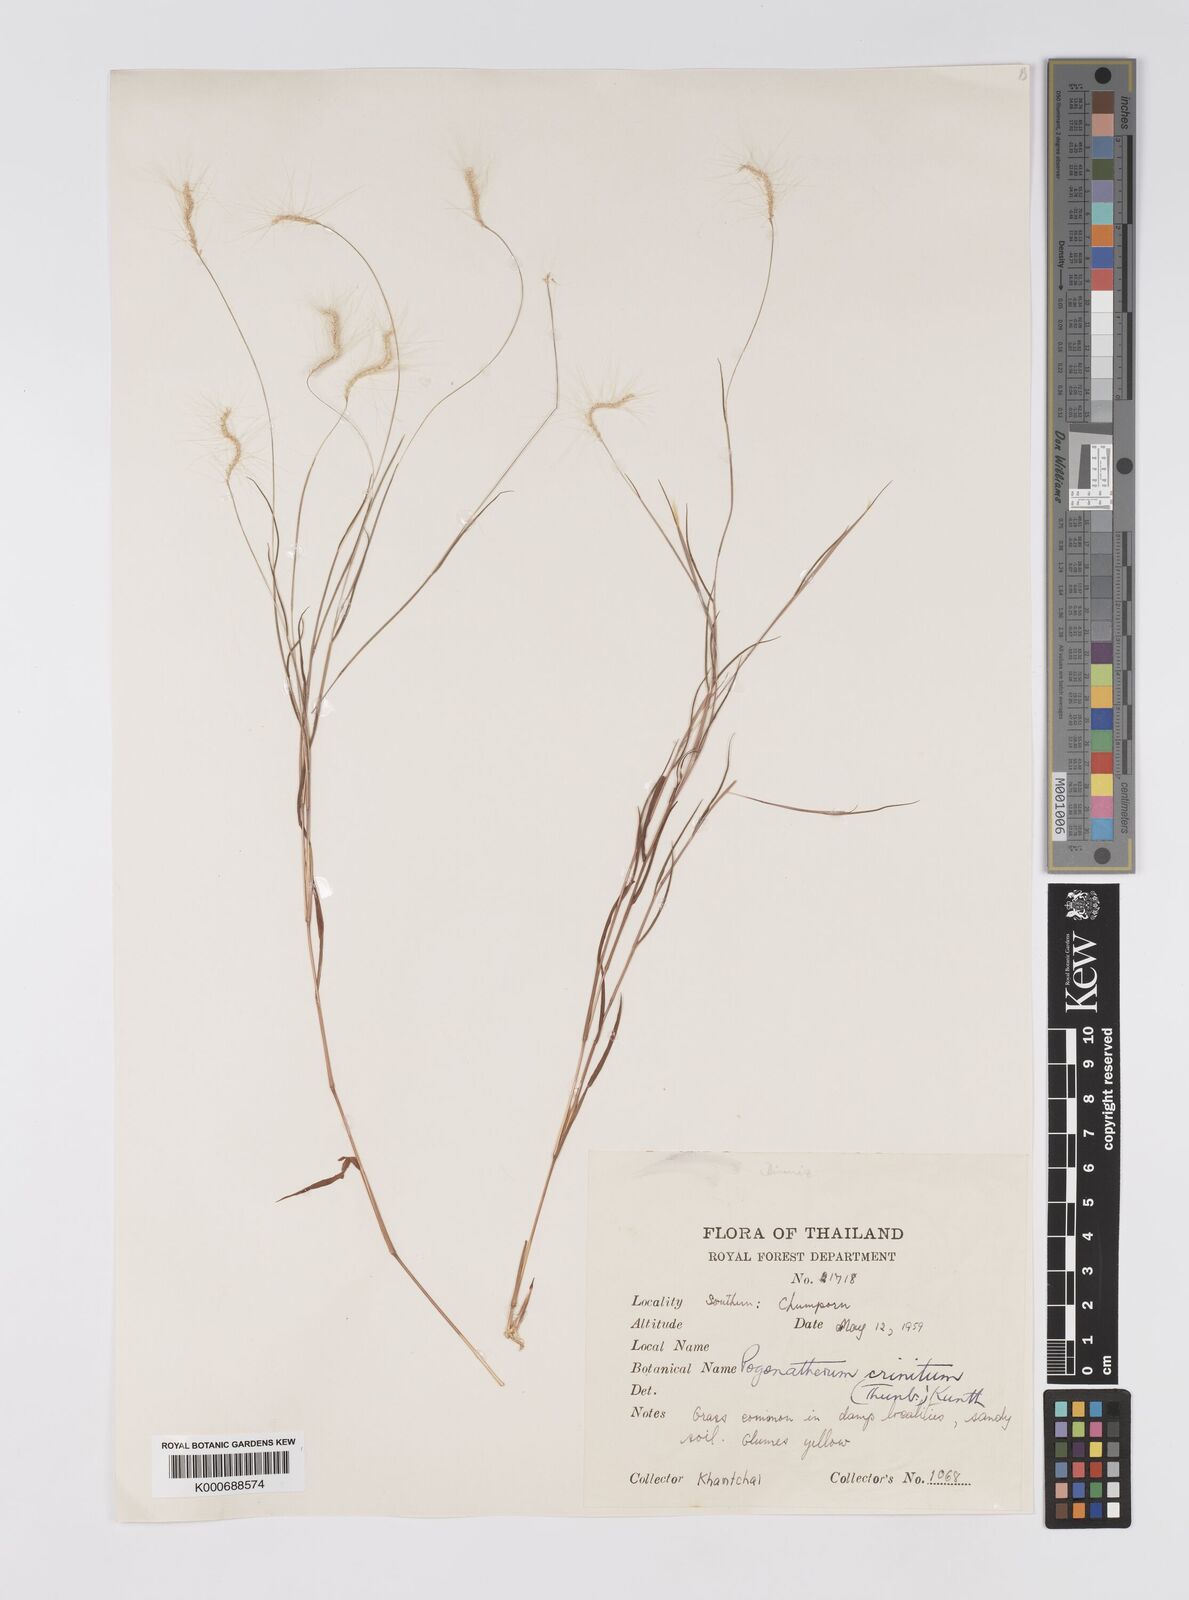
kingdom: Plantae
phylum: Tracheophyta
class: Liliopsida
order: Poales
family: Poaceae
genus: Pogonatherum
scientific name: Pogonatherum crinitum
